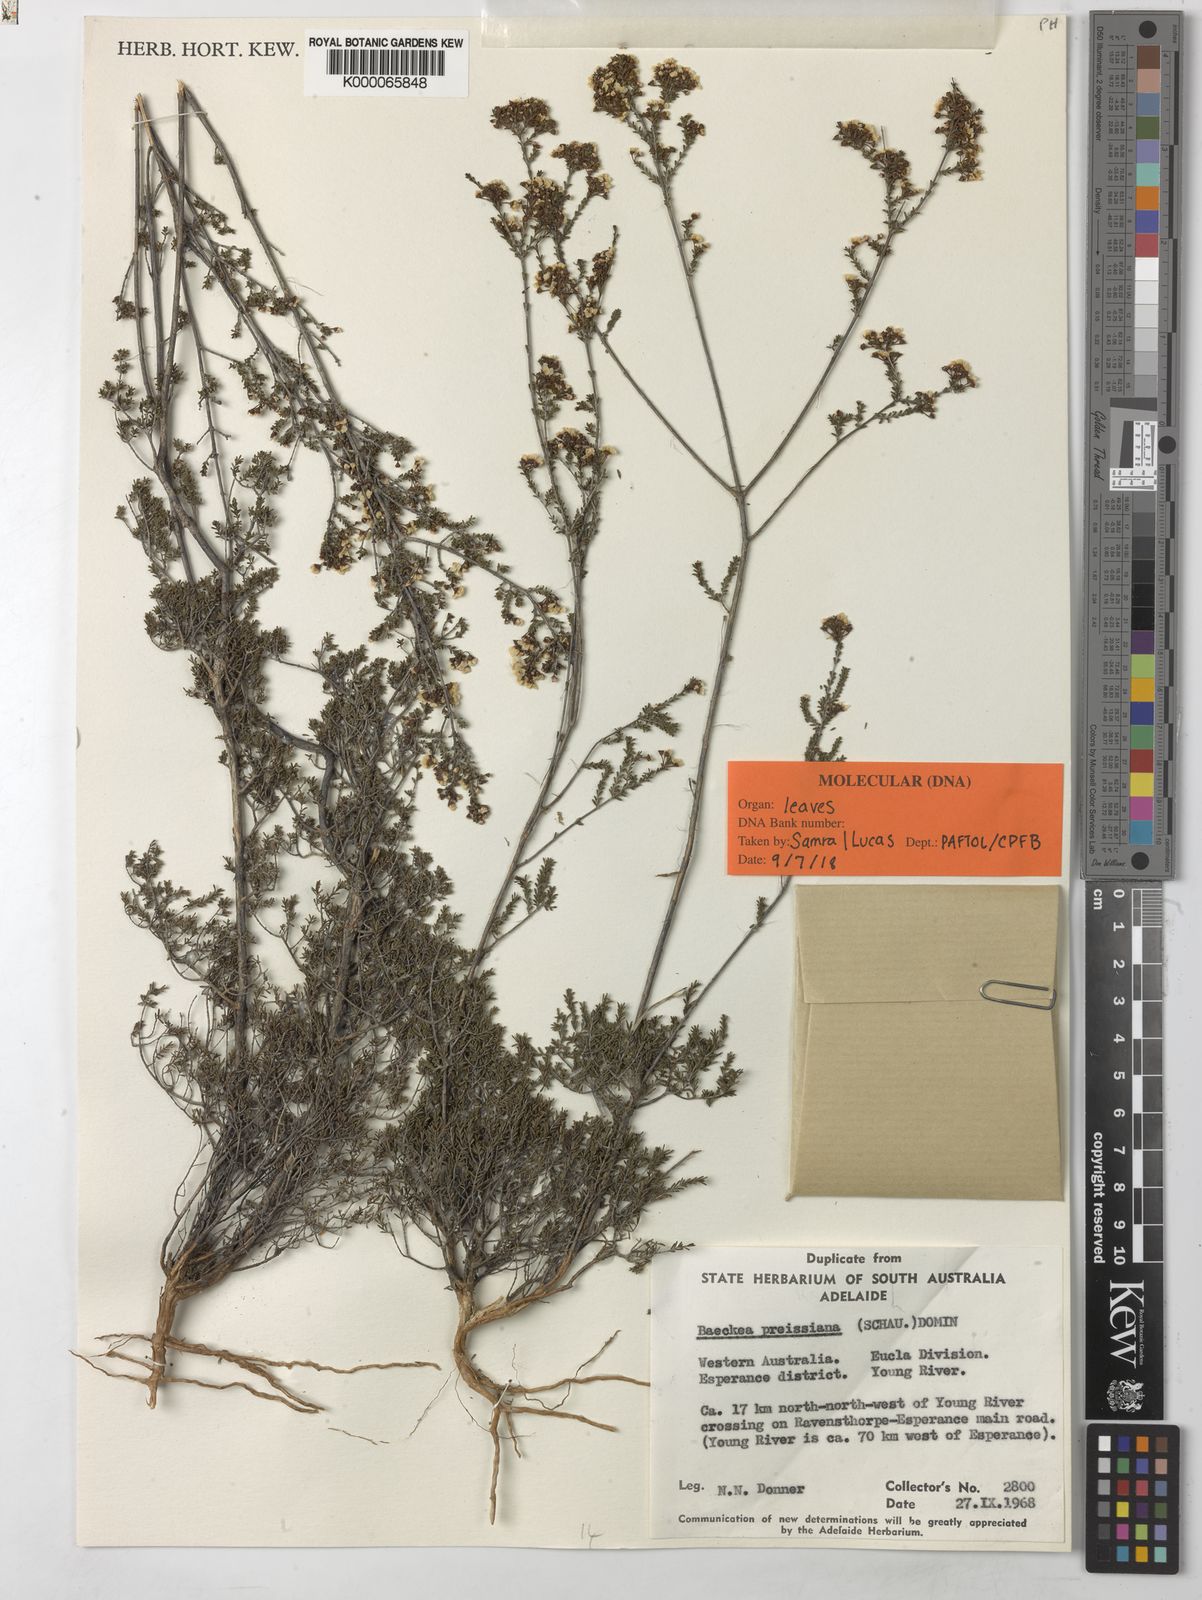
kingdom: Plantae
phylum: Tracheophyta
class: Magnoliopsida
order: Myrtales
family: Myrtaceae
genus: Baeckea
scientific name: Baeckea
